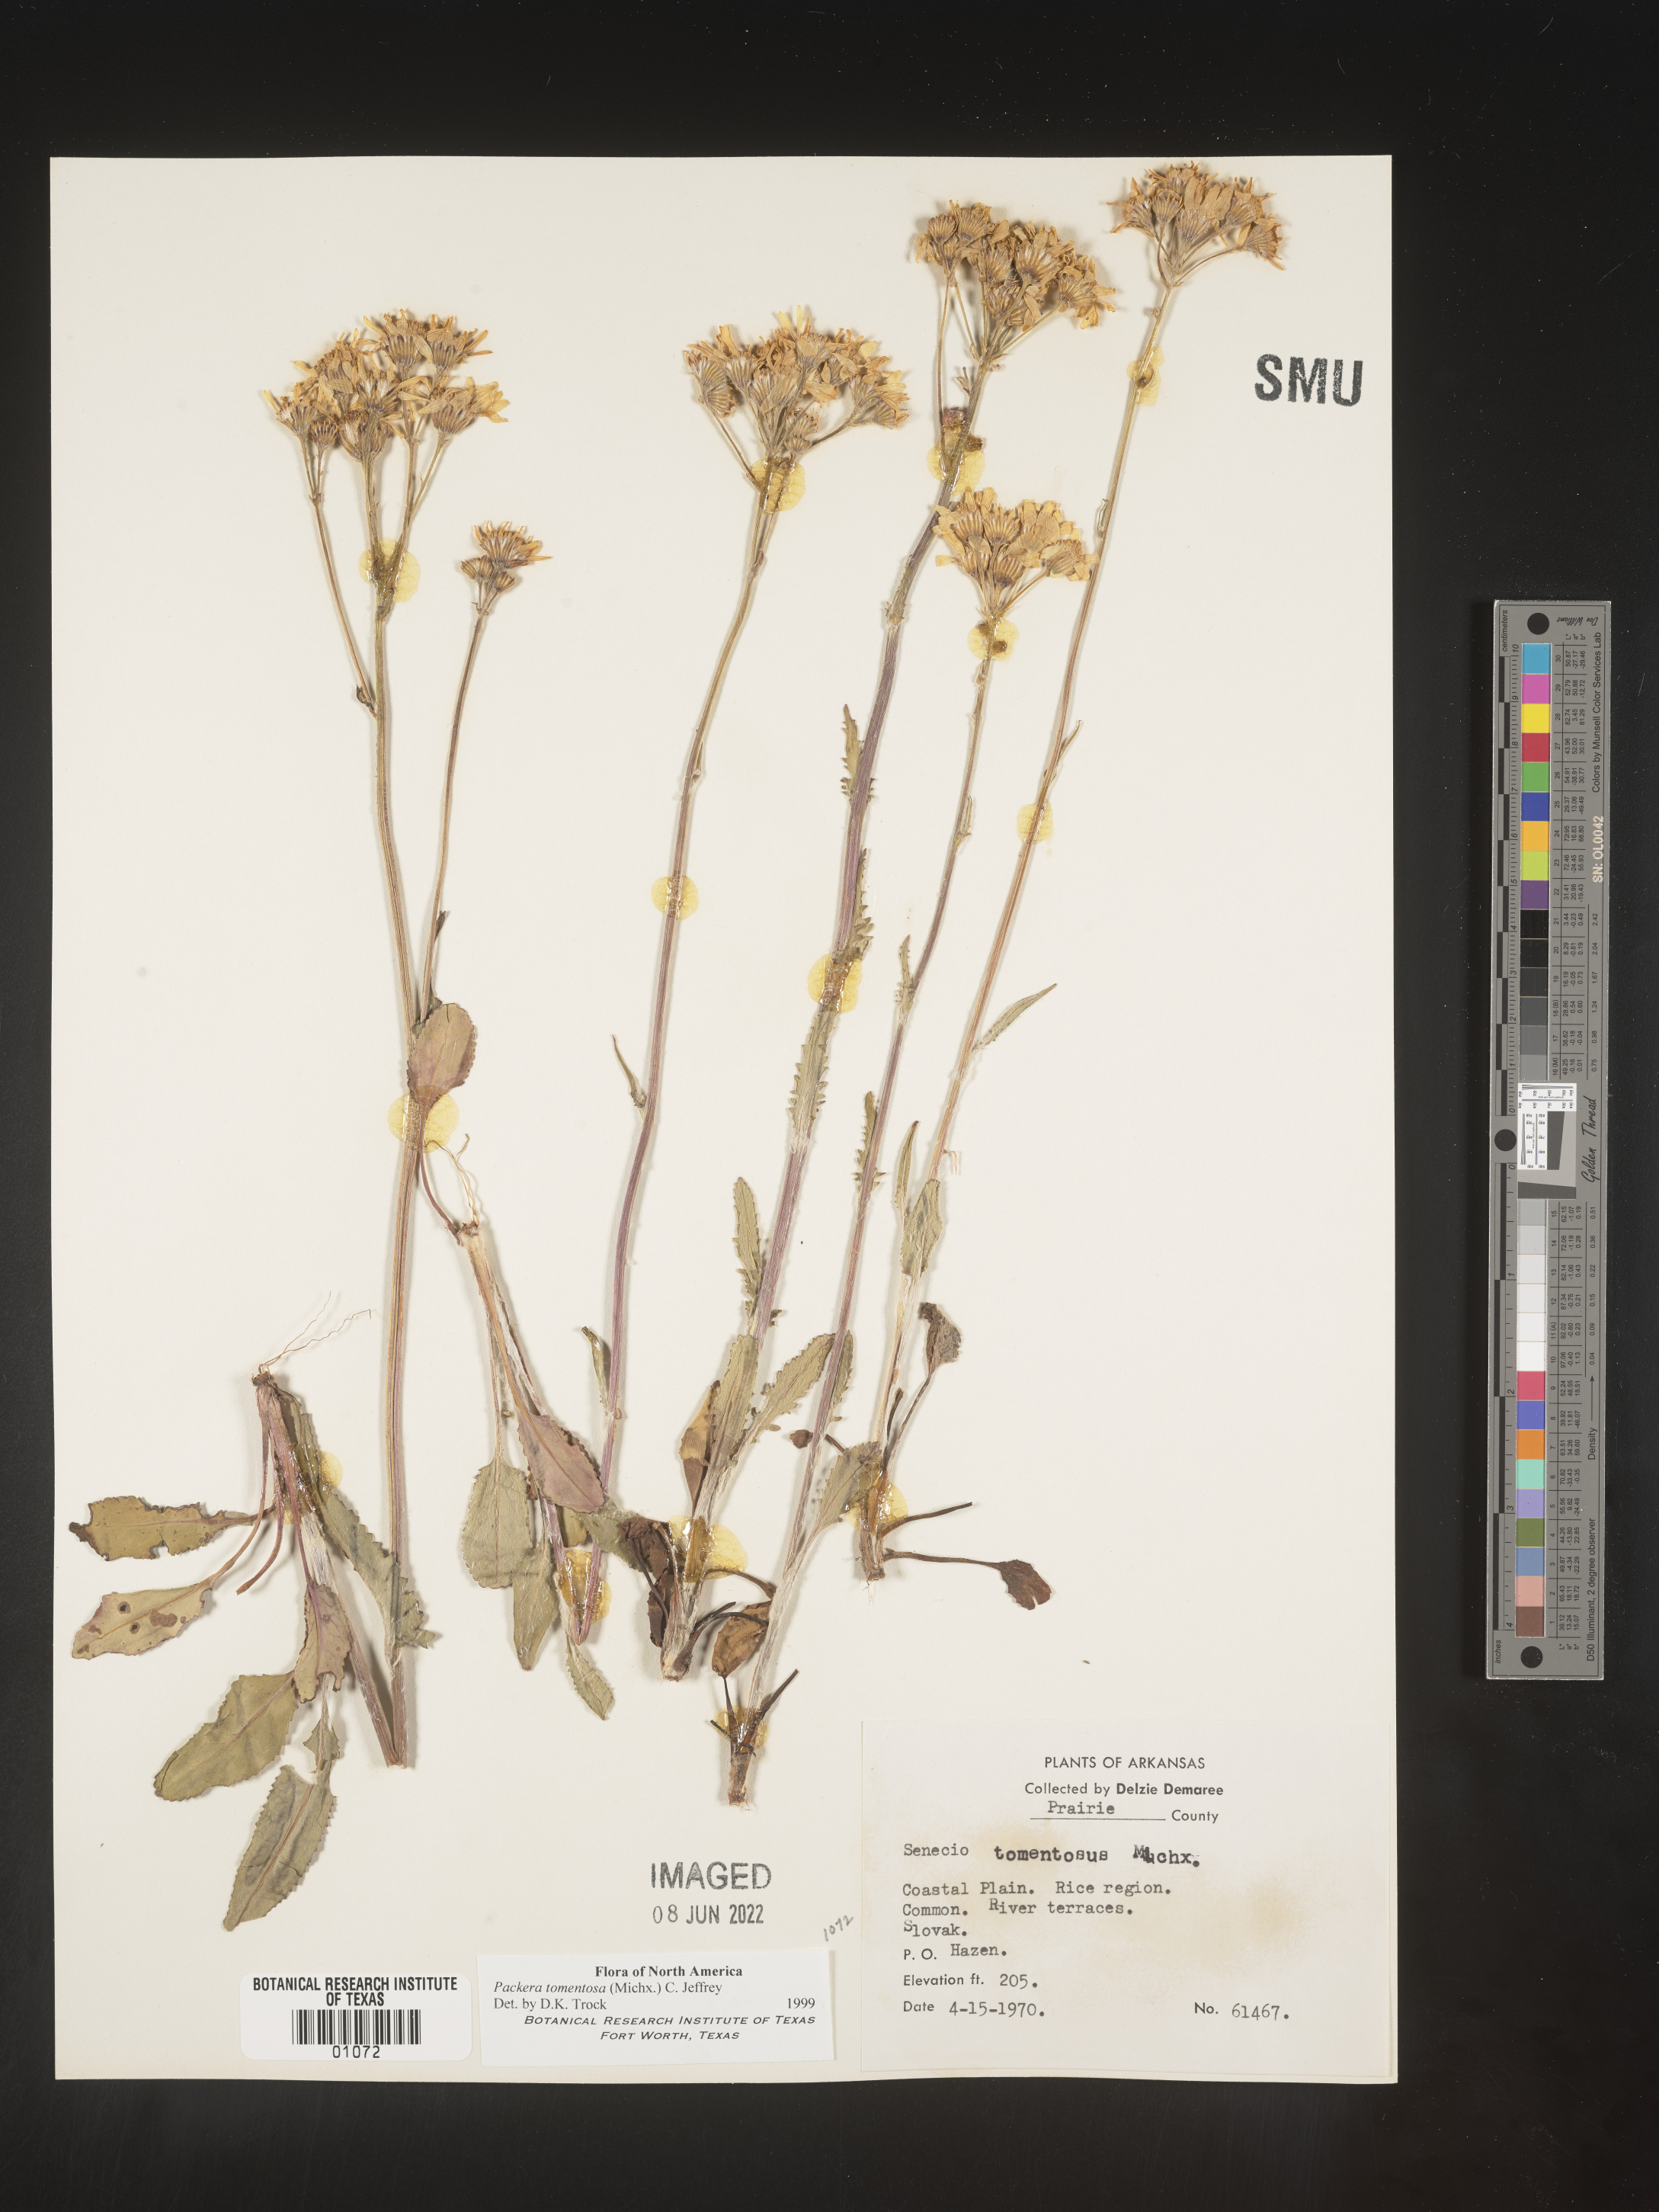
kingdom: Plantae
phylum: Tracheophyta
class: Magnoliopsida
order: Asterales
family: Asteraceae
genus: Packera
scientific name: Packera dubia
